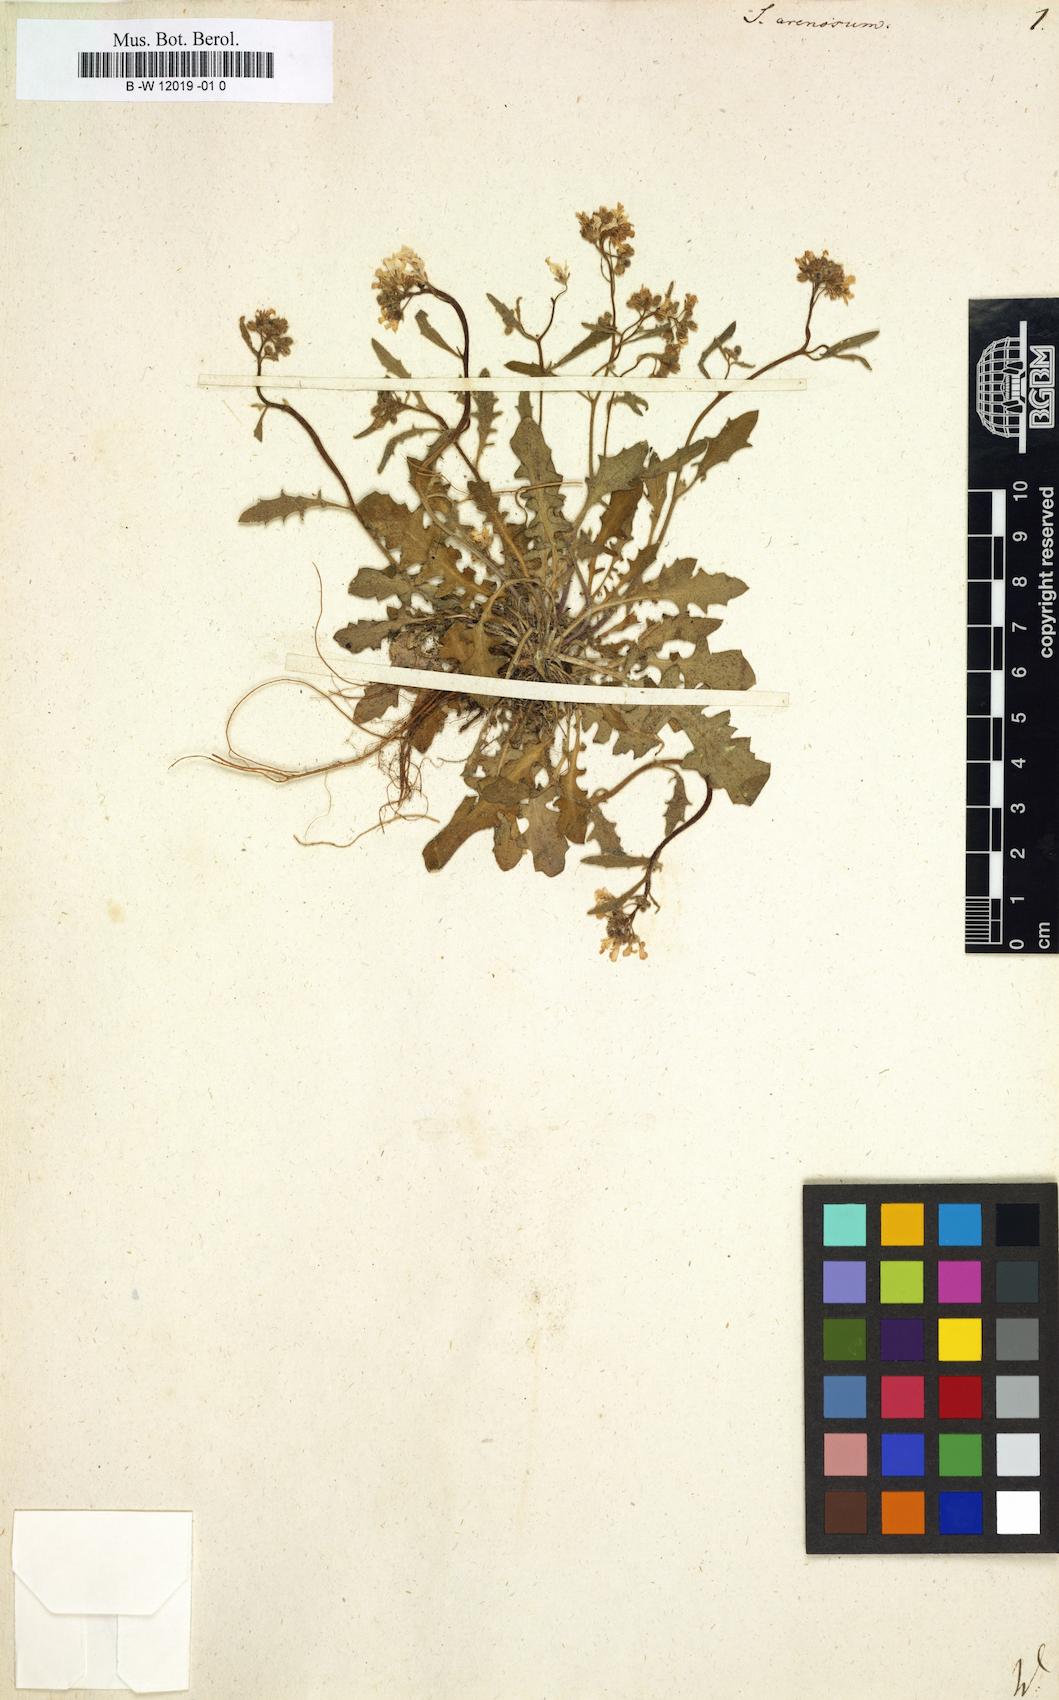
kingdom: Plantae
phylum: Tracheophyta
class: Magnoliopsida
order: Brassicales
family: Brassicaceae
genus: Arabidopsis
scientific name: Arabidopsis
